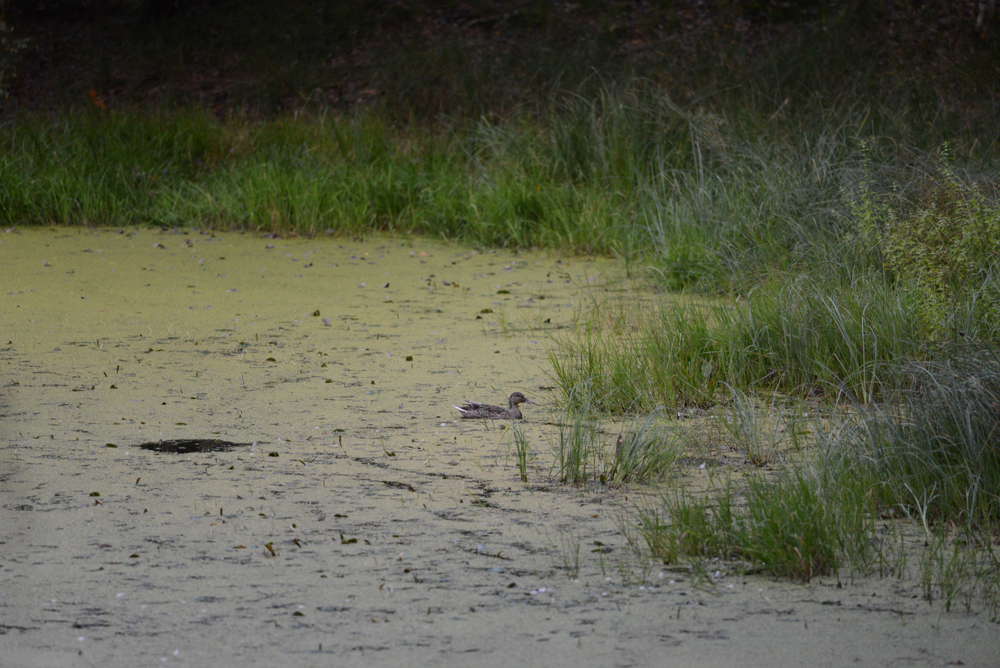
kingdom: Animalia
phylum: Chordata
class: Aves
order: Anseriformes
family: Anatidae
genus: Anas
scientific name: Anas platyrhynchos
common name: Mallard
